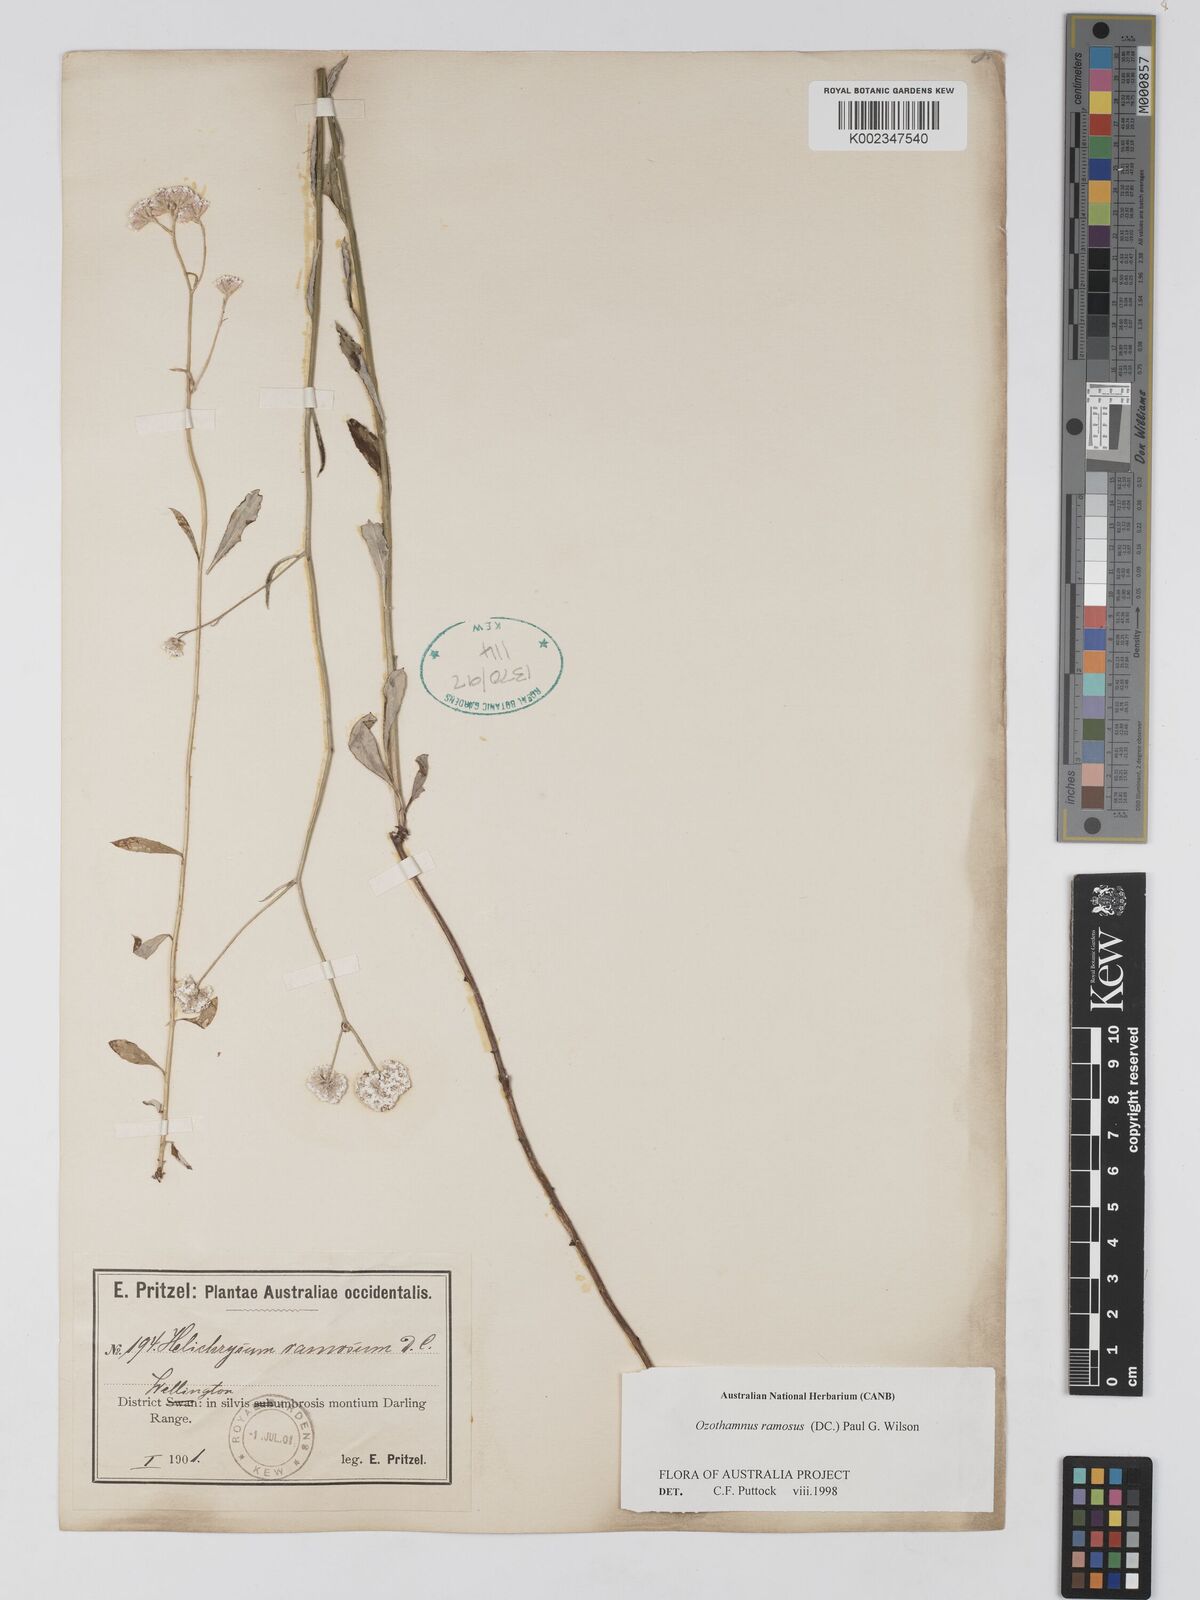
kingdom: Plantae
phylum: Tracheophyta
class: Magnoliopsida
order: Asterales
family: Asteraceae
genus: Pithocarpa
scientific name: Pithocarpa ramosa
